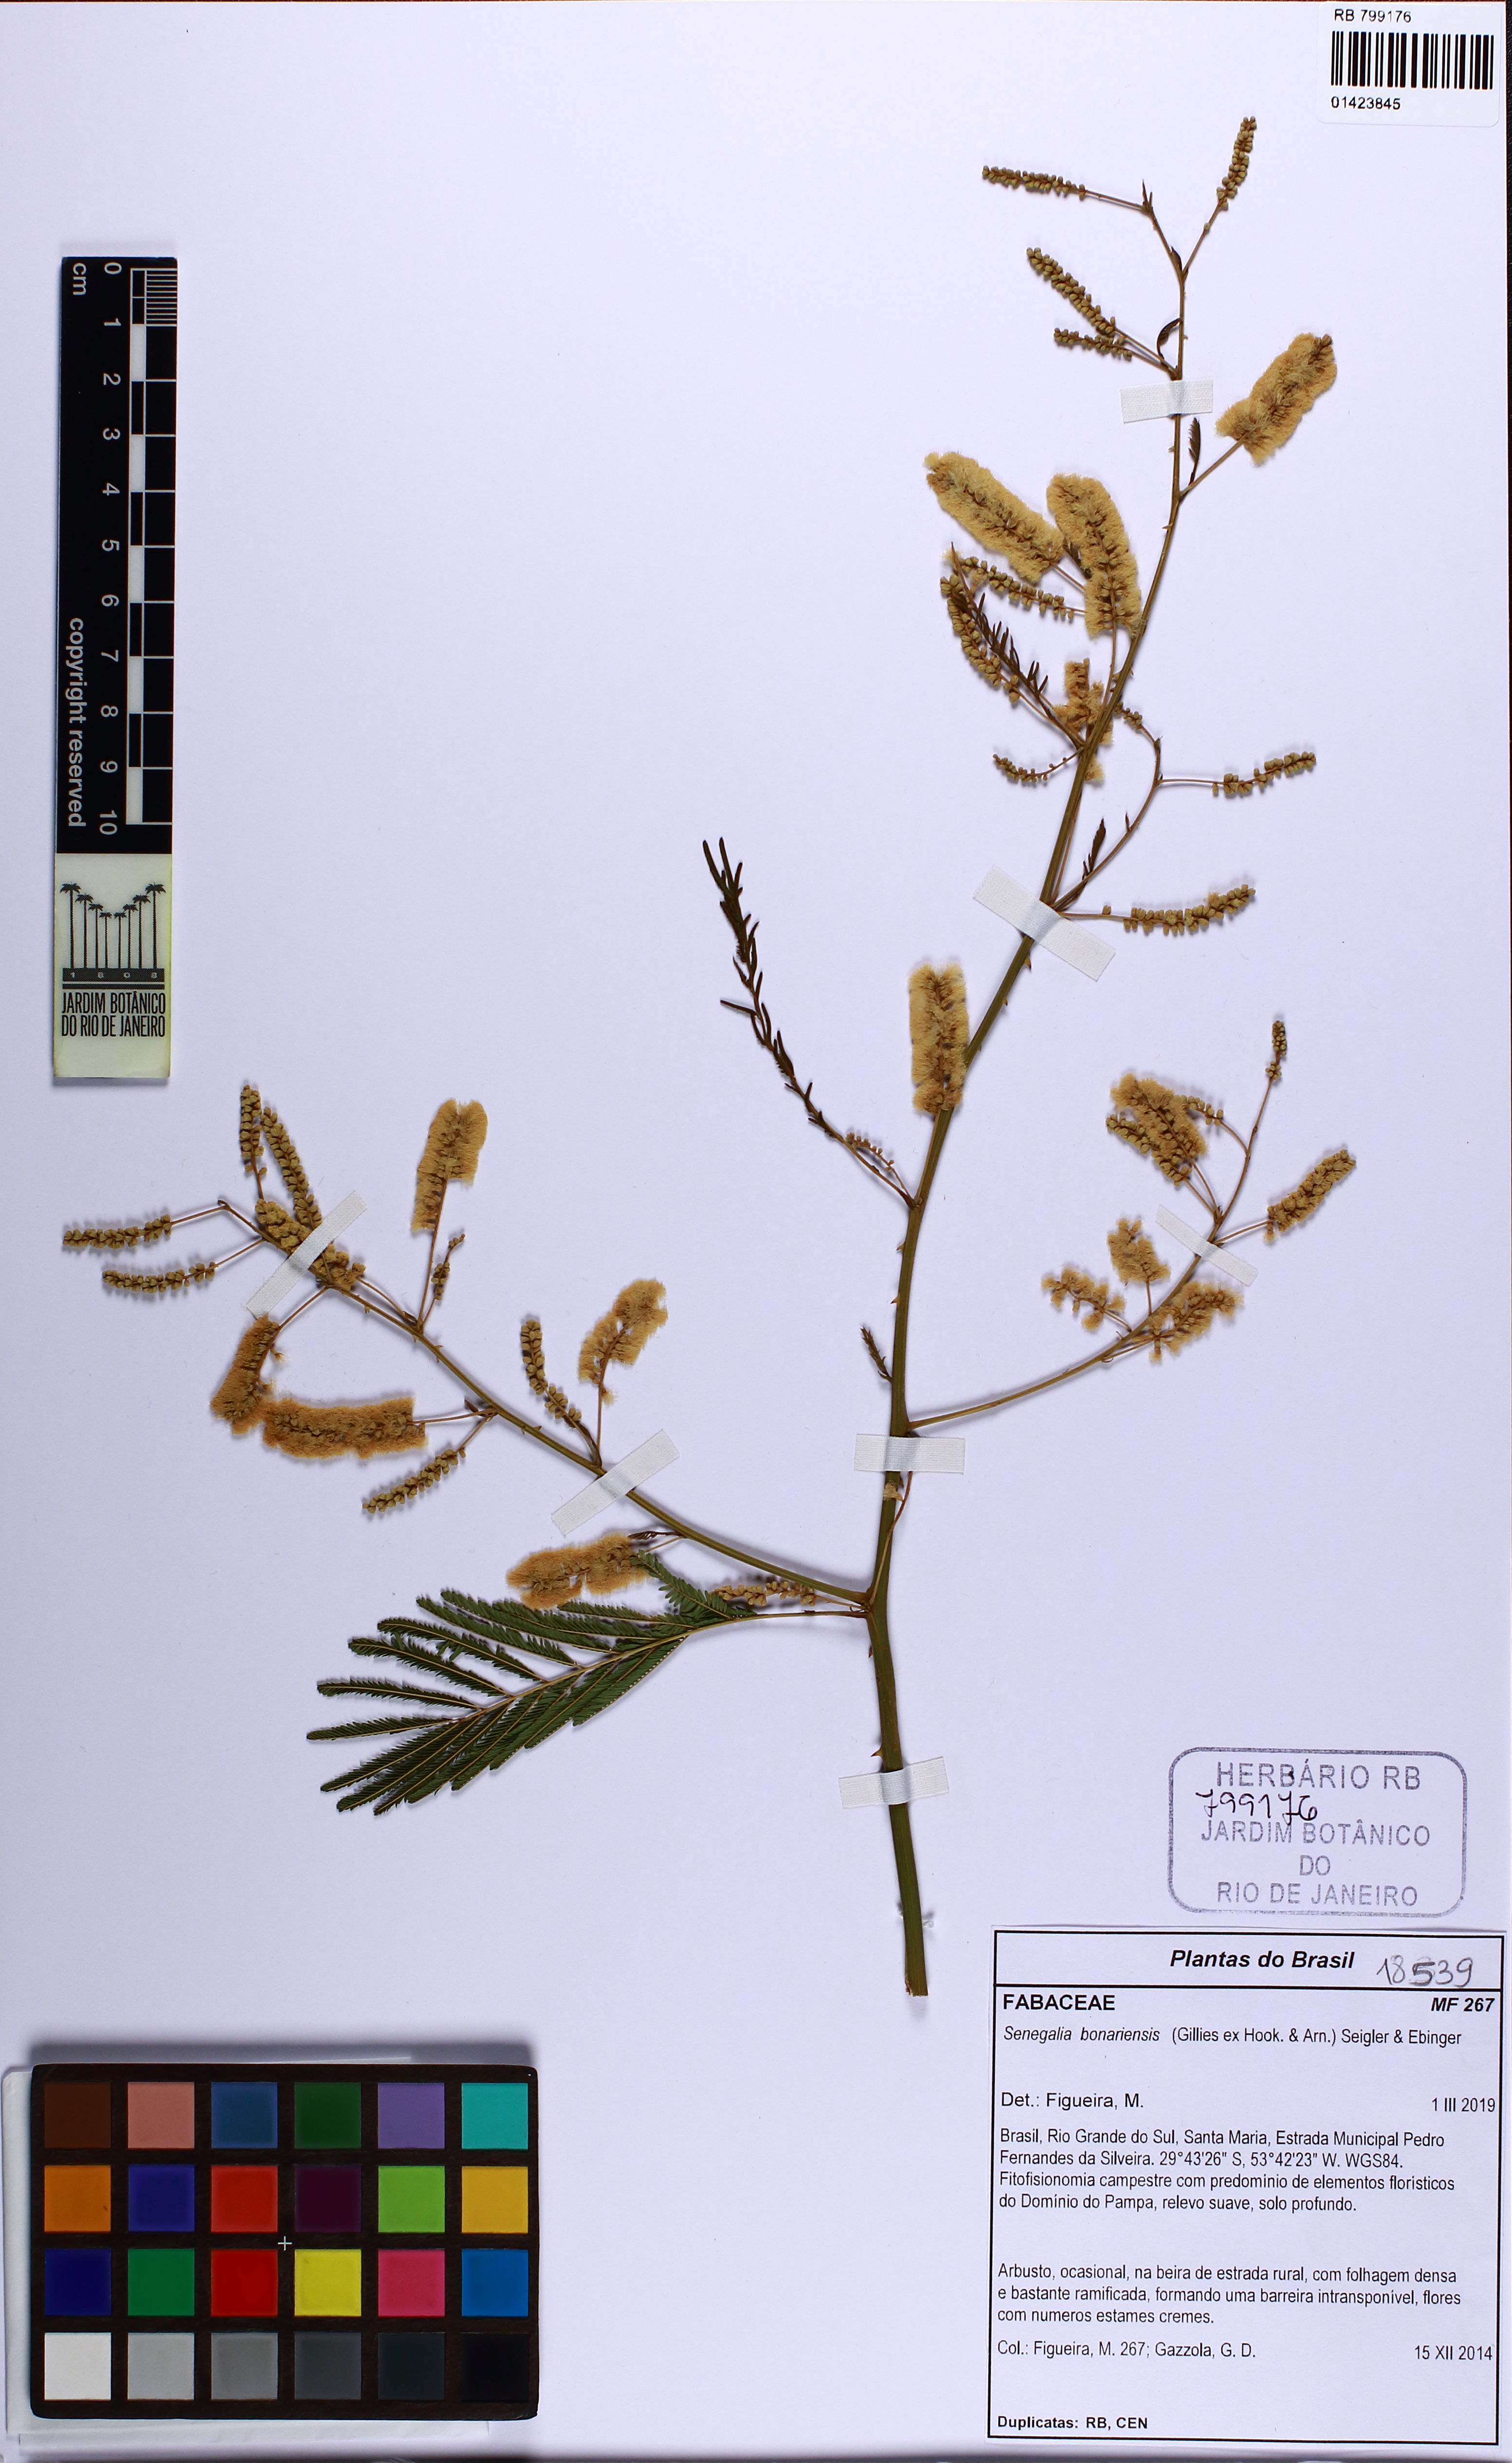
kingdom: Plantae
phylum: Tracheophyta
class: Magnoliopsida
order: Fabales
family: Fabaceae
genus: Senegalia
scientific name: Senegalia bonariensis
